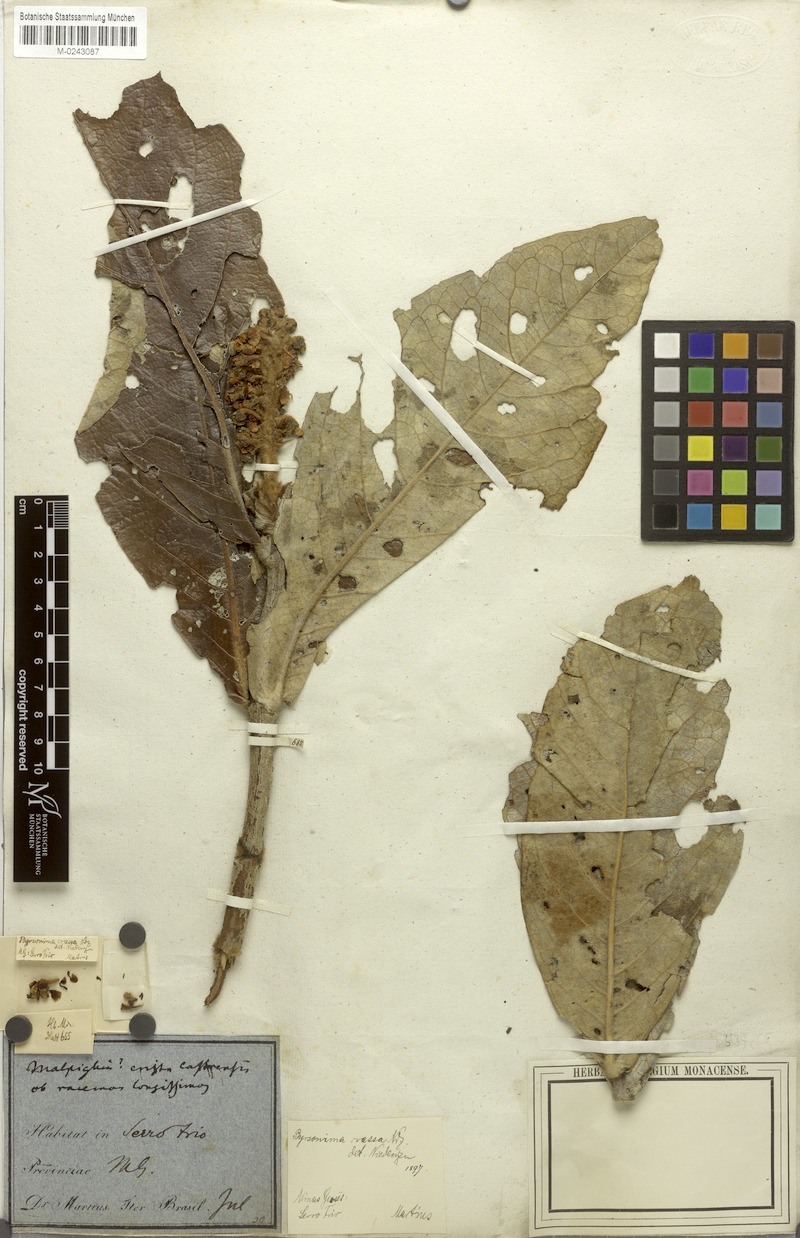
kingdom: Plantae
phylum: Tracheophyta
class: Magnoliopsida
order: Malpighiales
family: Malpighiaceae
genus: Byrsonima
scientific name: Byrsonima verbascifolia
